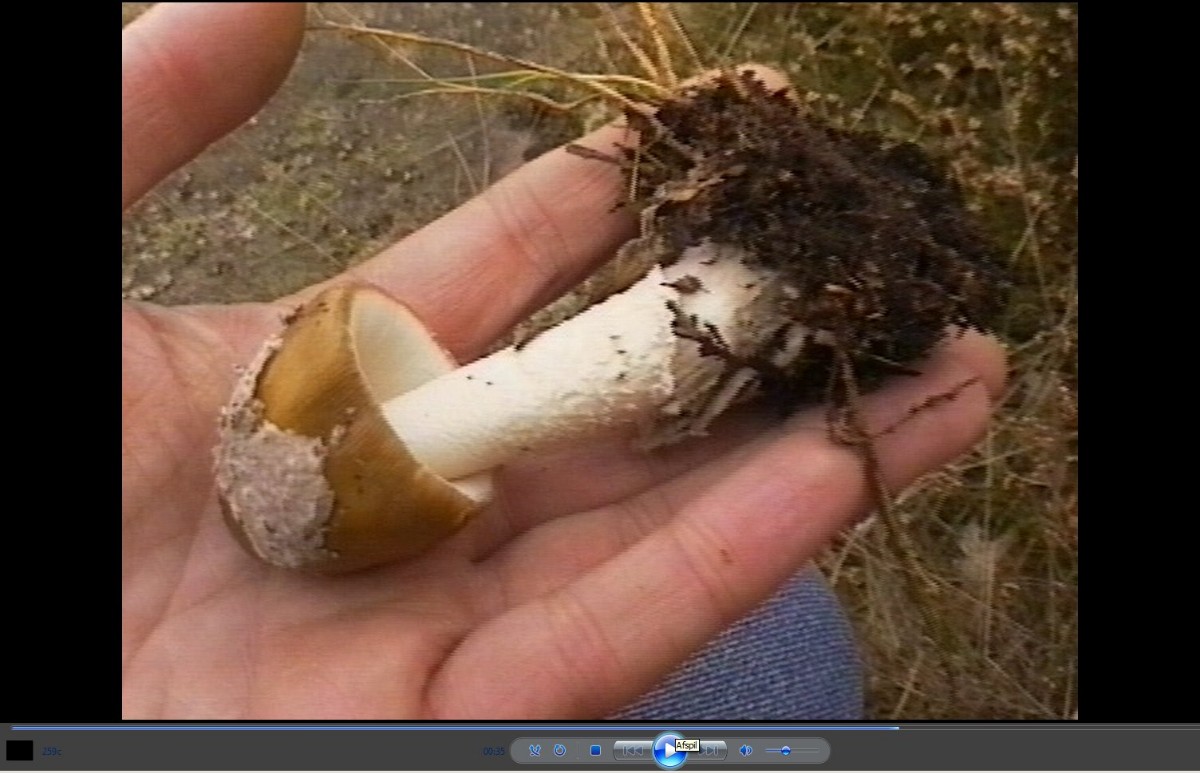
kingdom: Fungi
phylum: Basidiomycota
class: Agaricomycetes
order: Agaricales
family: Amanitaceae
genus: Amanita
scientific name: Amanita submembranacea
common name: gråspættet kam-fluesvamp
